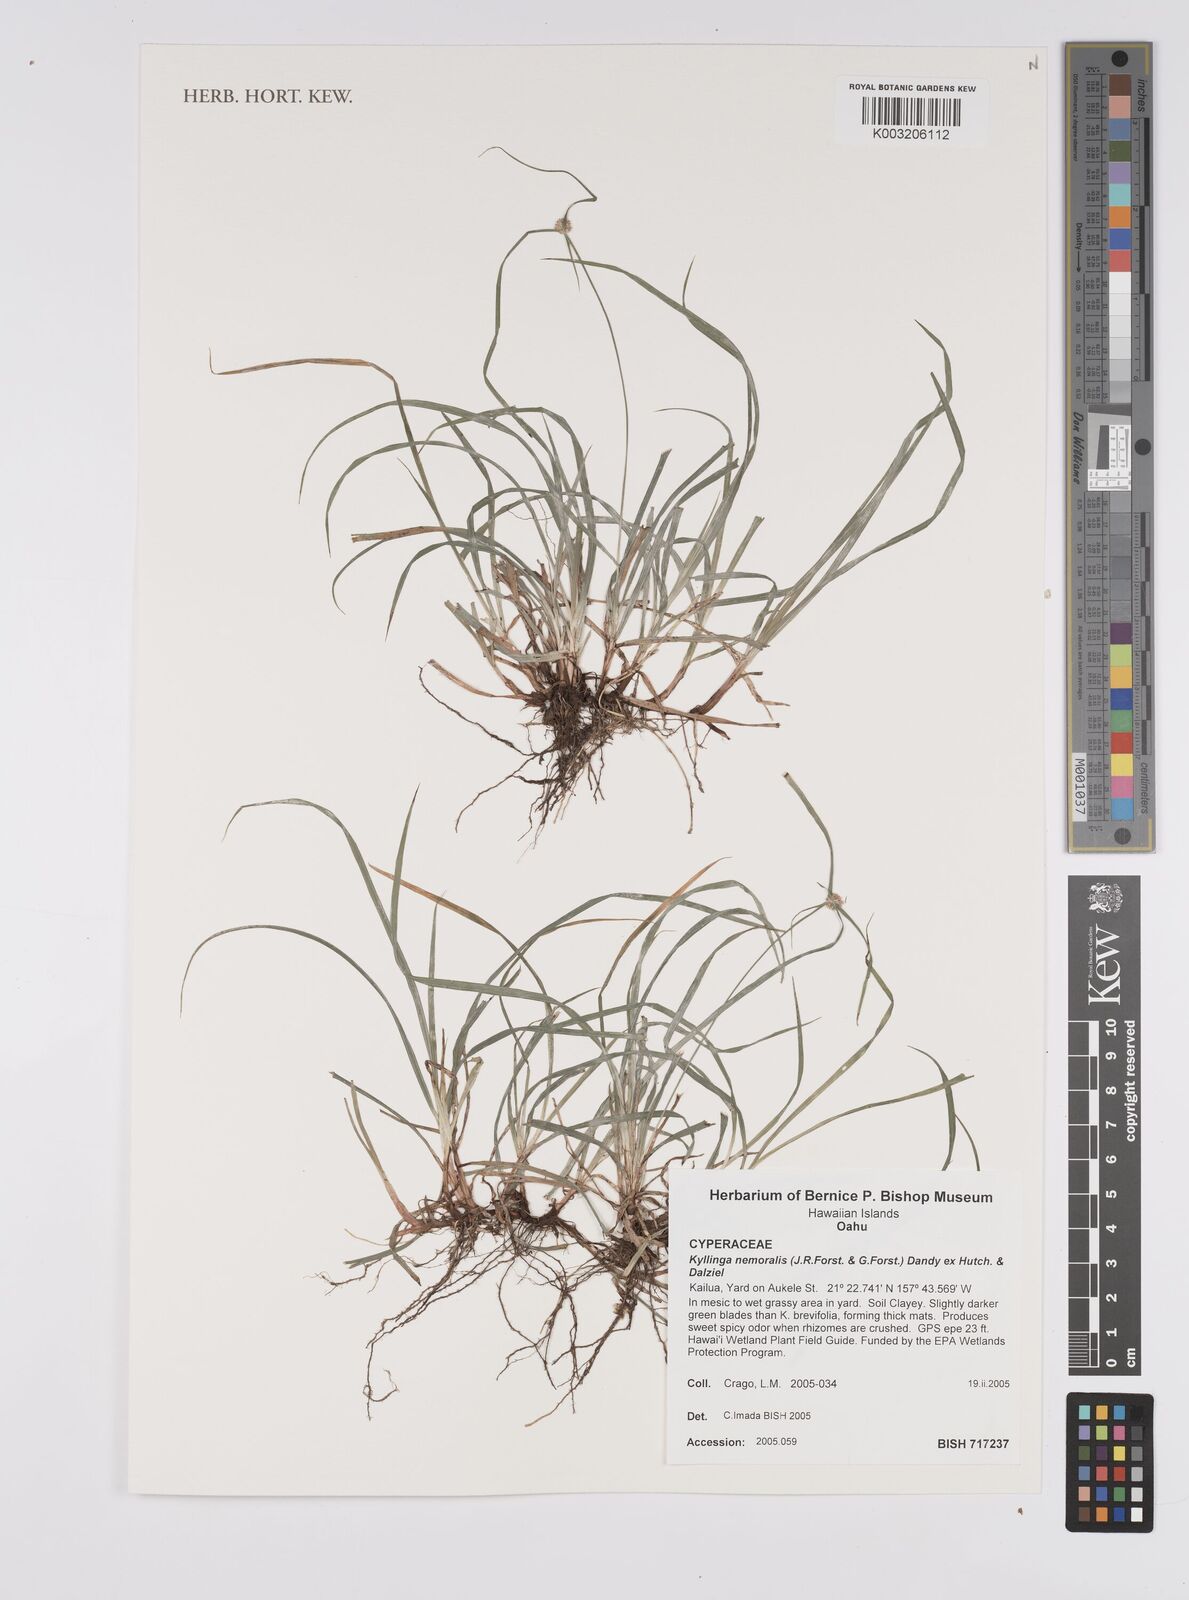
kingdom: Plantae
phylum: Tracheophyta
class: Liliopsida
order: Poales
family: Cyperaceae
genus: Cyperus
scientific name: Cyperus nemoralis
